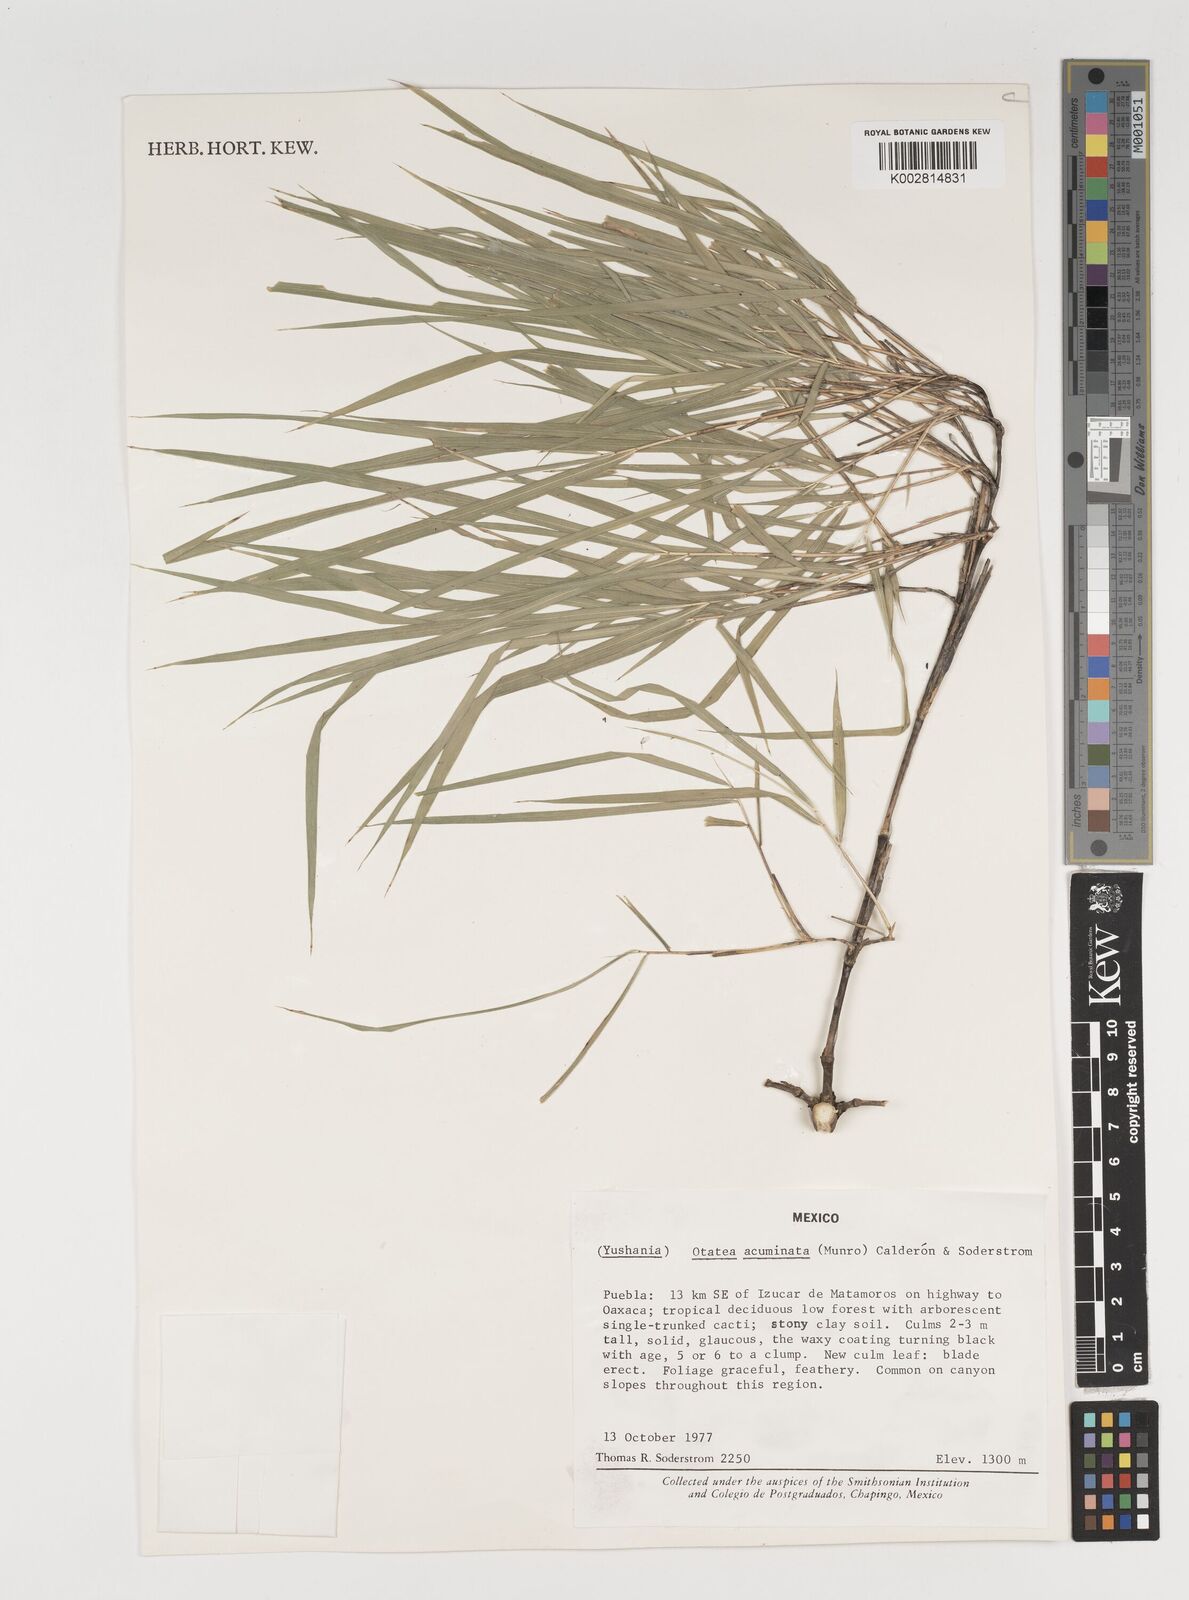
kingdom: Plantae
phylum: Tracheophyta
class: Liliopsida
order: Poales
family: Poaceae
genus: Olmeca
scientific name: Olmeca
